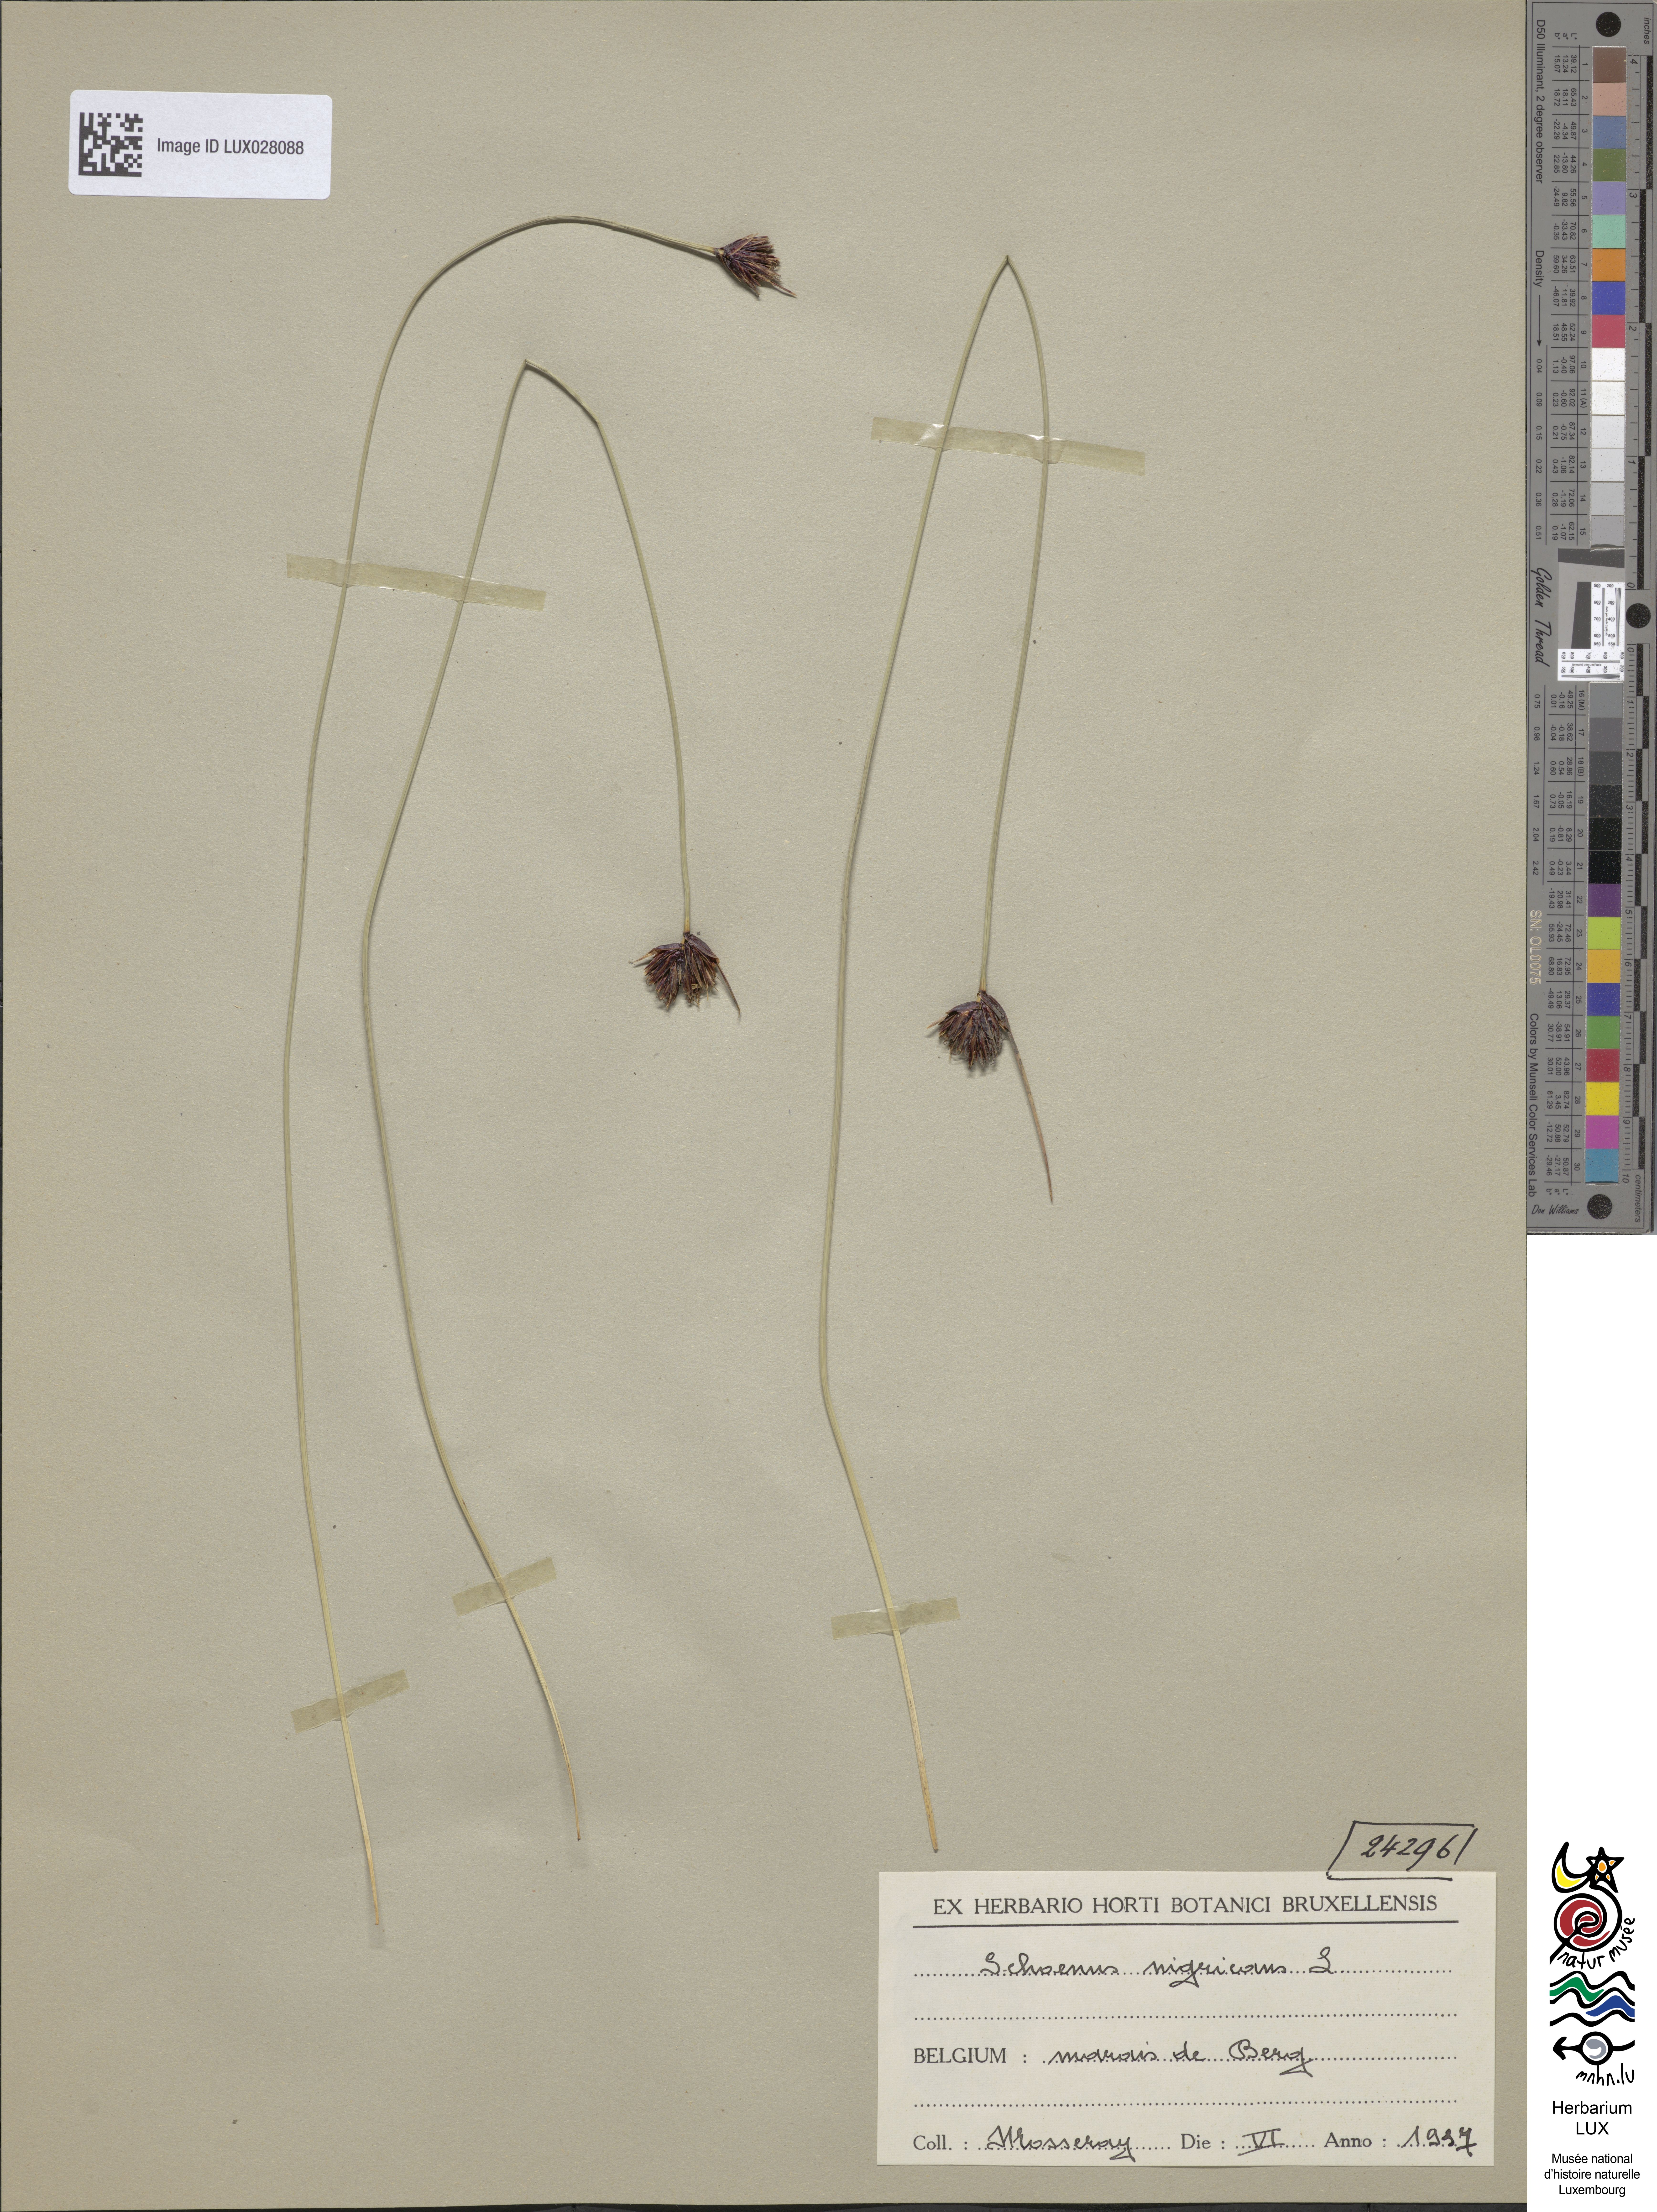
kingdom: Plantae
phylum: Tracheophyta
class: Liliopsida
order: Poales
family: Cyperaceae
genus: Schoenus
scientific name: Schoenus nigricans
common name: Black bog-rush
